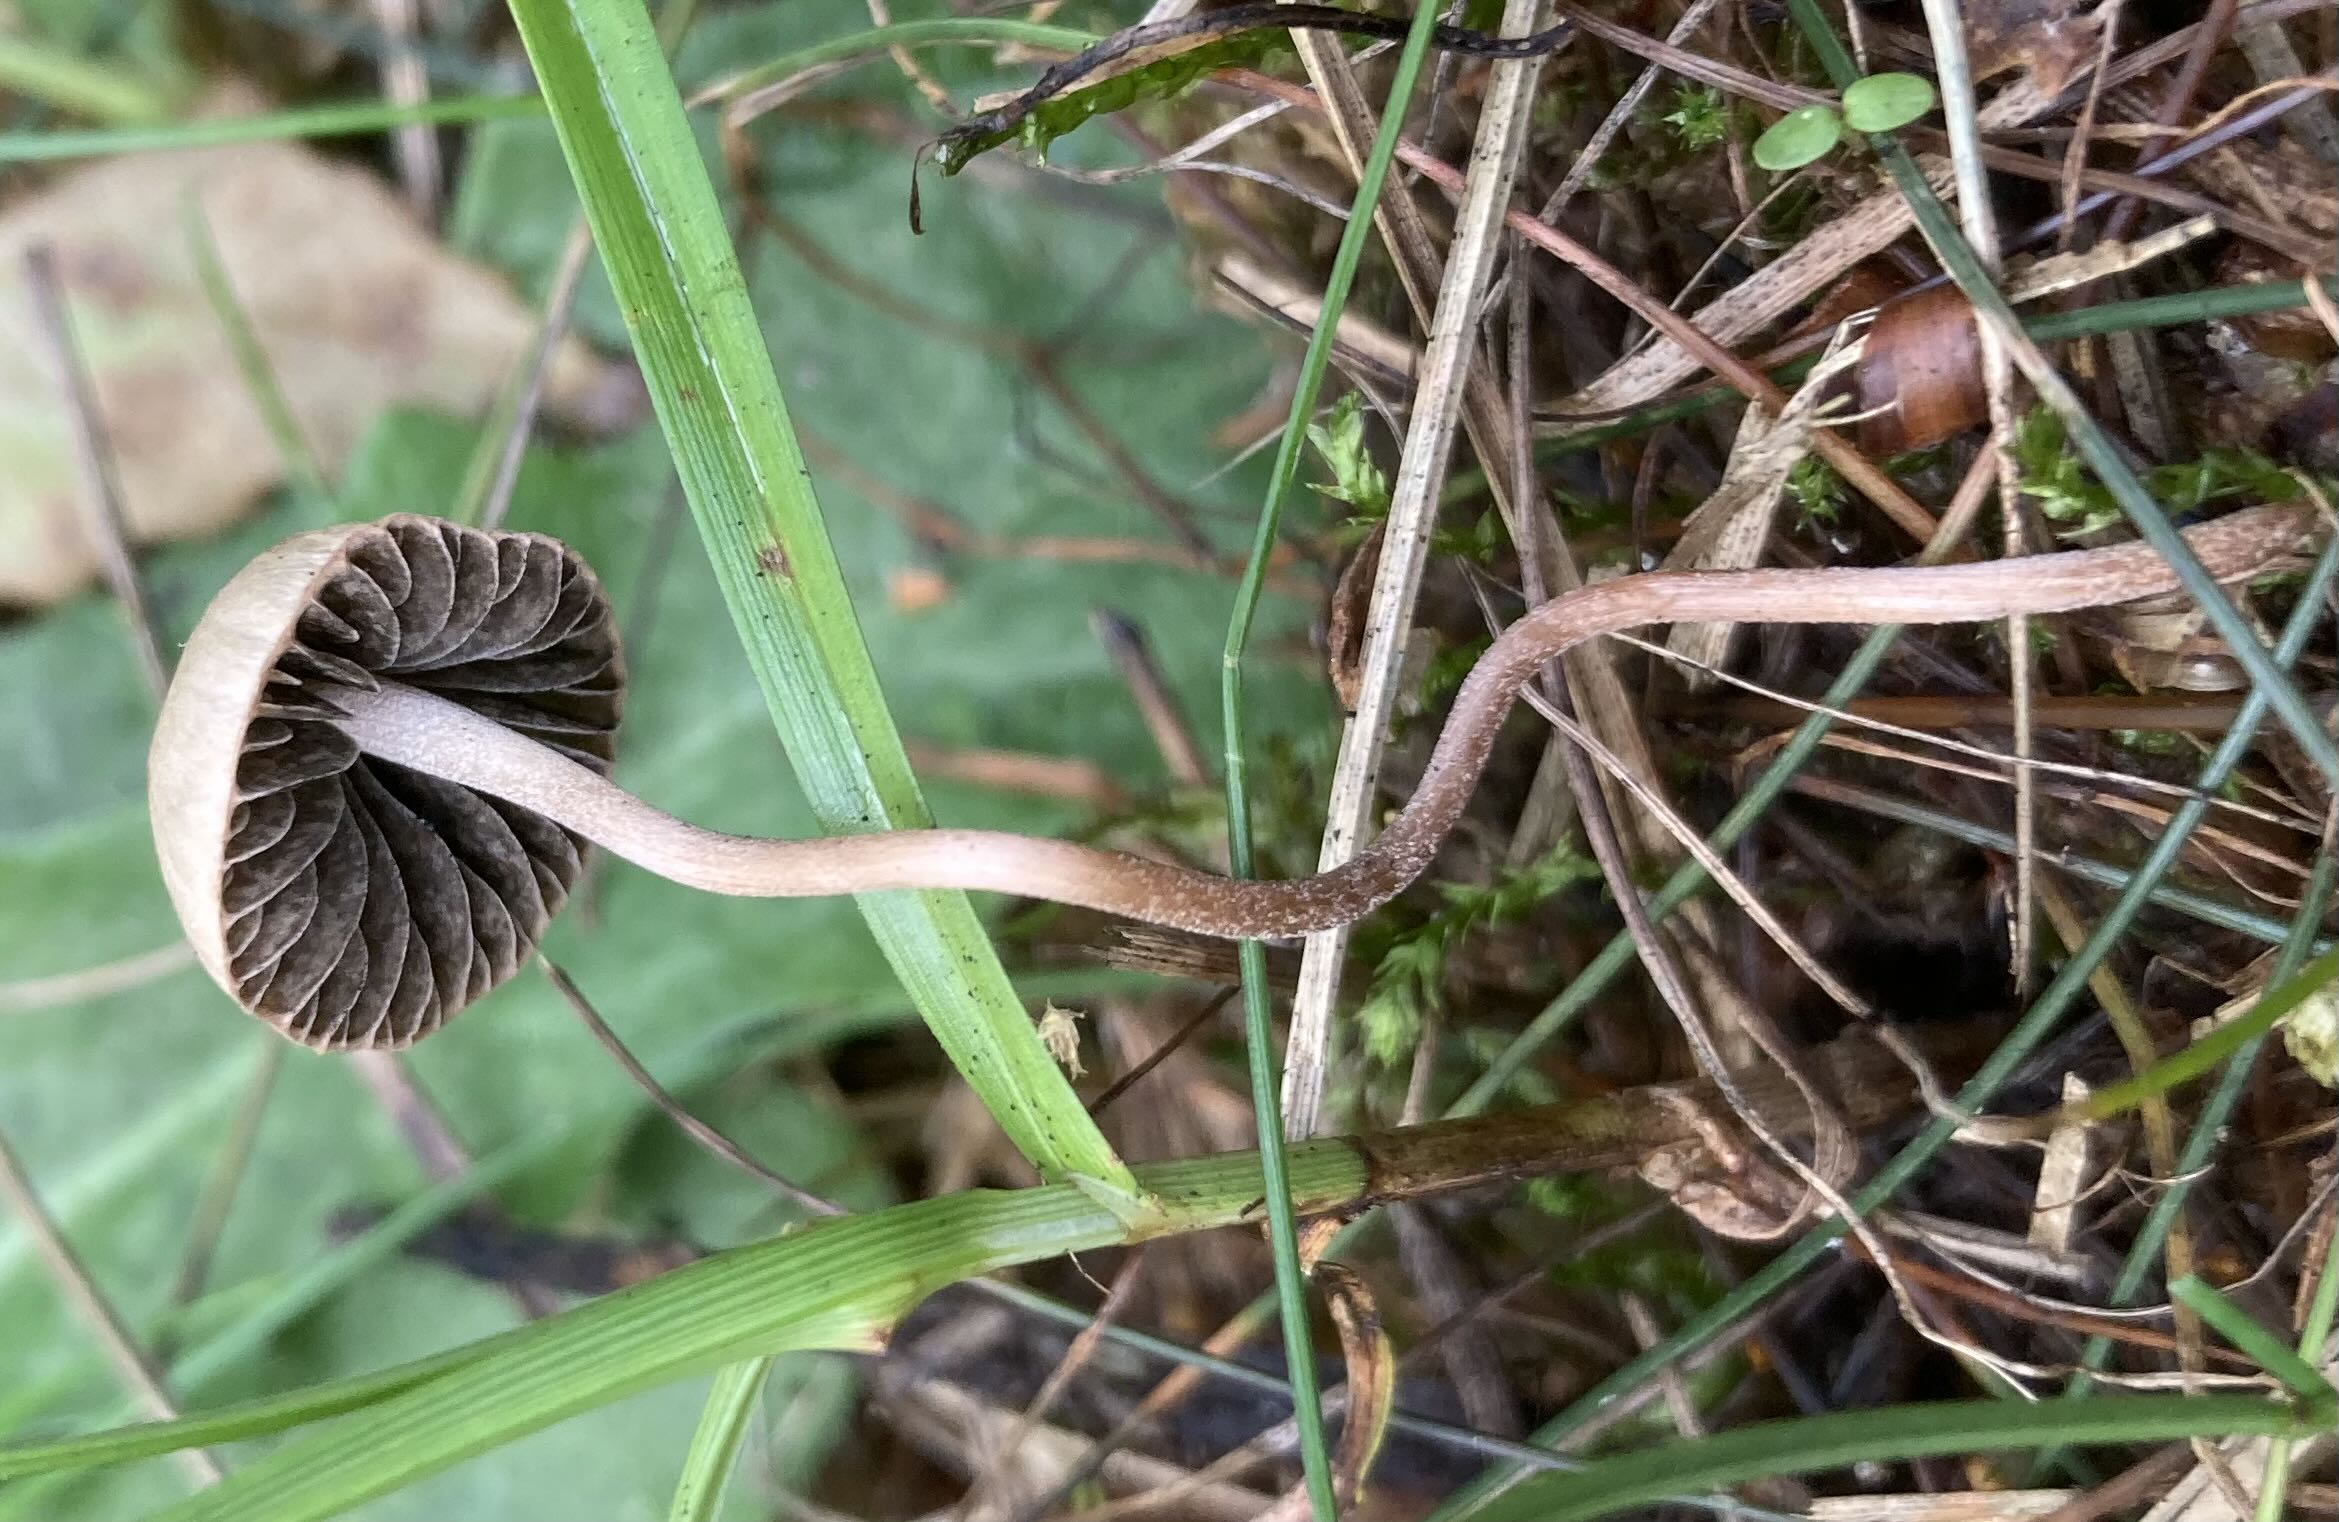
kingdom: Fungi
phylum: Basidiomycota
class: Agaricomycetes
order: Agaricales
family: Bolbitiaceae
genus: Panaeolus
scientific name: Panaeolus olivaceus
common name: lysstokket glanshat
